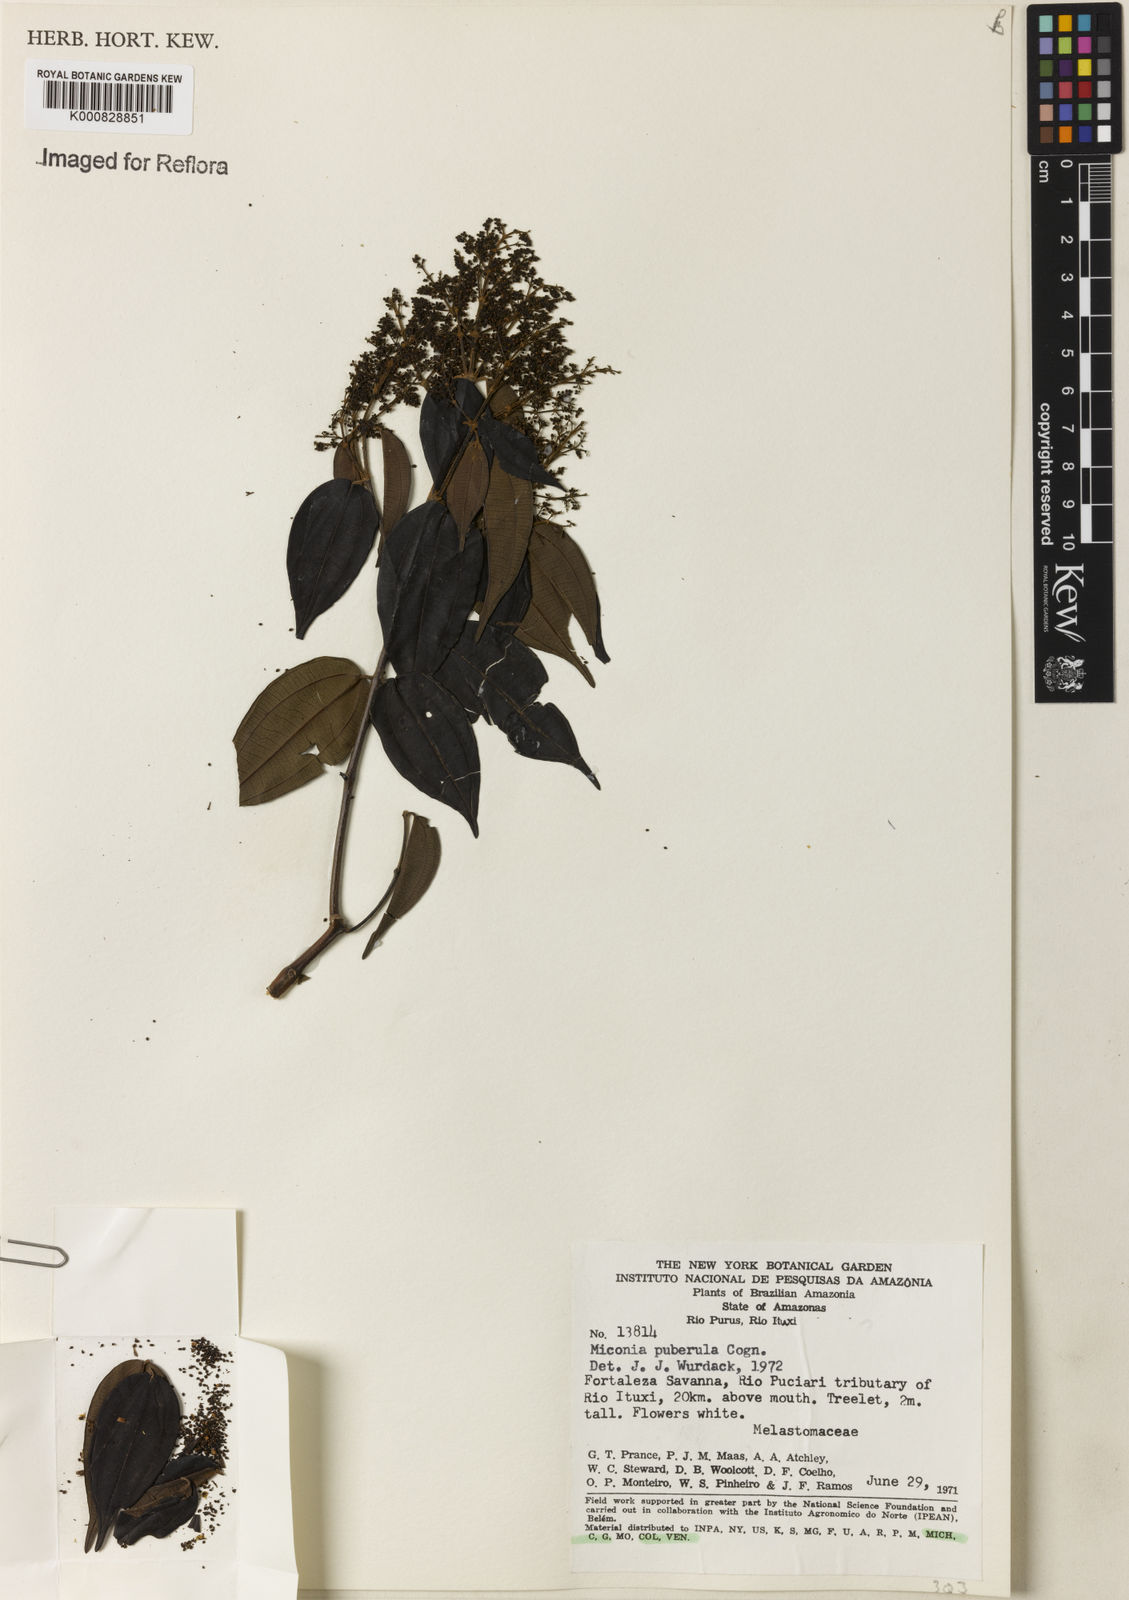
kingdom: Plantae
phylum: Tracheophyta
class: Magnoliopsida
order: Myrtales
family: Melastomataceae
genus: Miconia
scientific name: Miconia puberula
